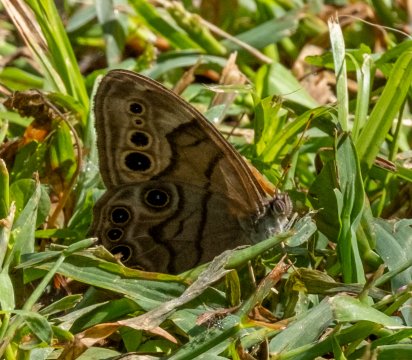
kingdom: Animalia
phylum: Arthropoda
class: Insecta
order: Lepidoptera
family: Nymphalidae
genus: Lethe
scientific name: Lethe anthedon
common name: Northern Pearly-Eye
